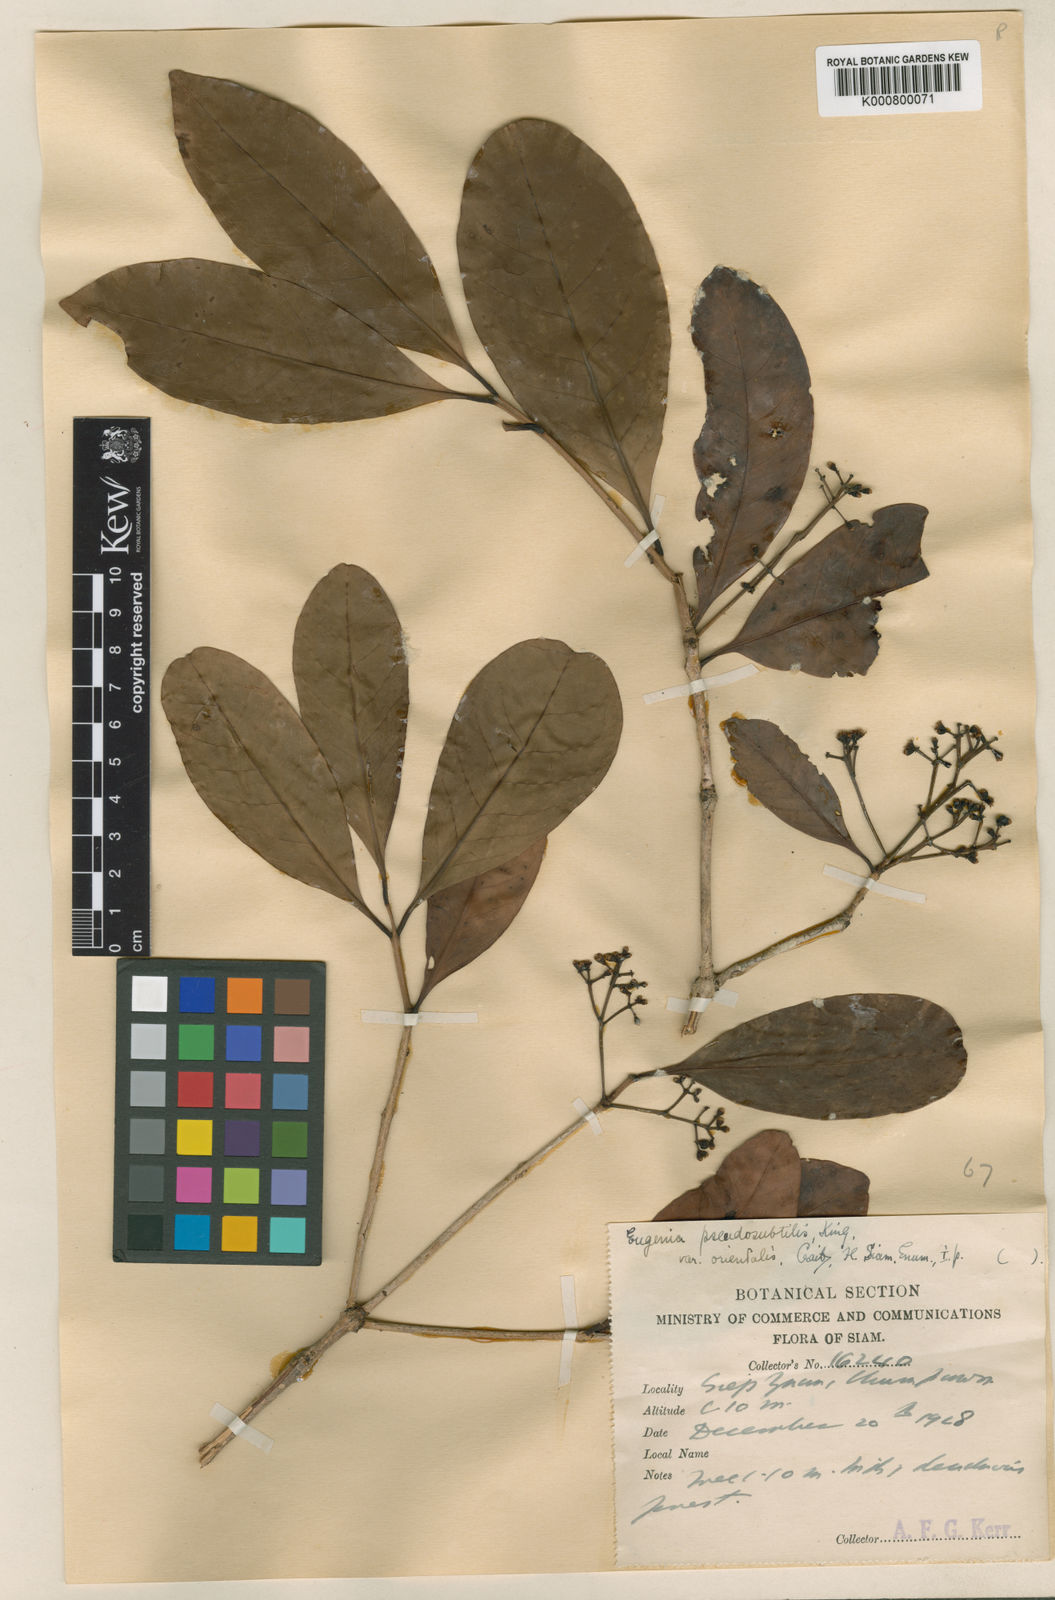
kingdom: Plantae
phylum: Tracheophyta
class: Magnoliopsida
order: Myrtales
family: Myrtaceae
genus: Syzygium
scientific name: Syzygium borneense
